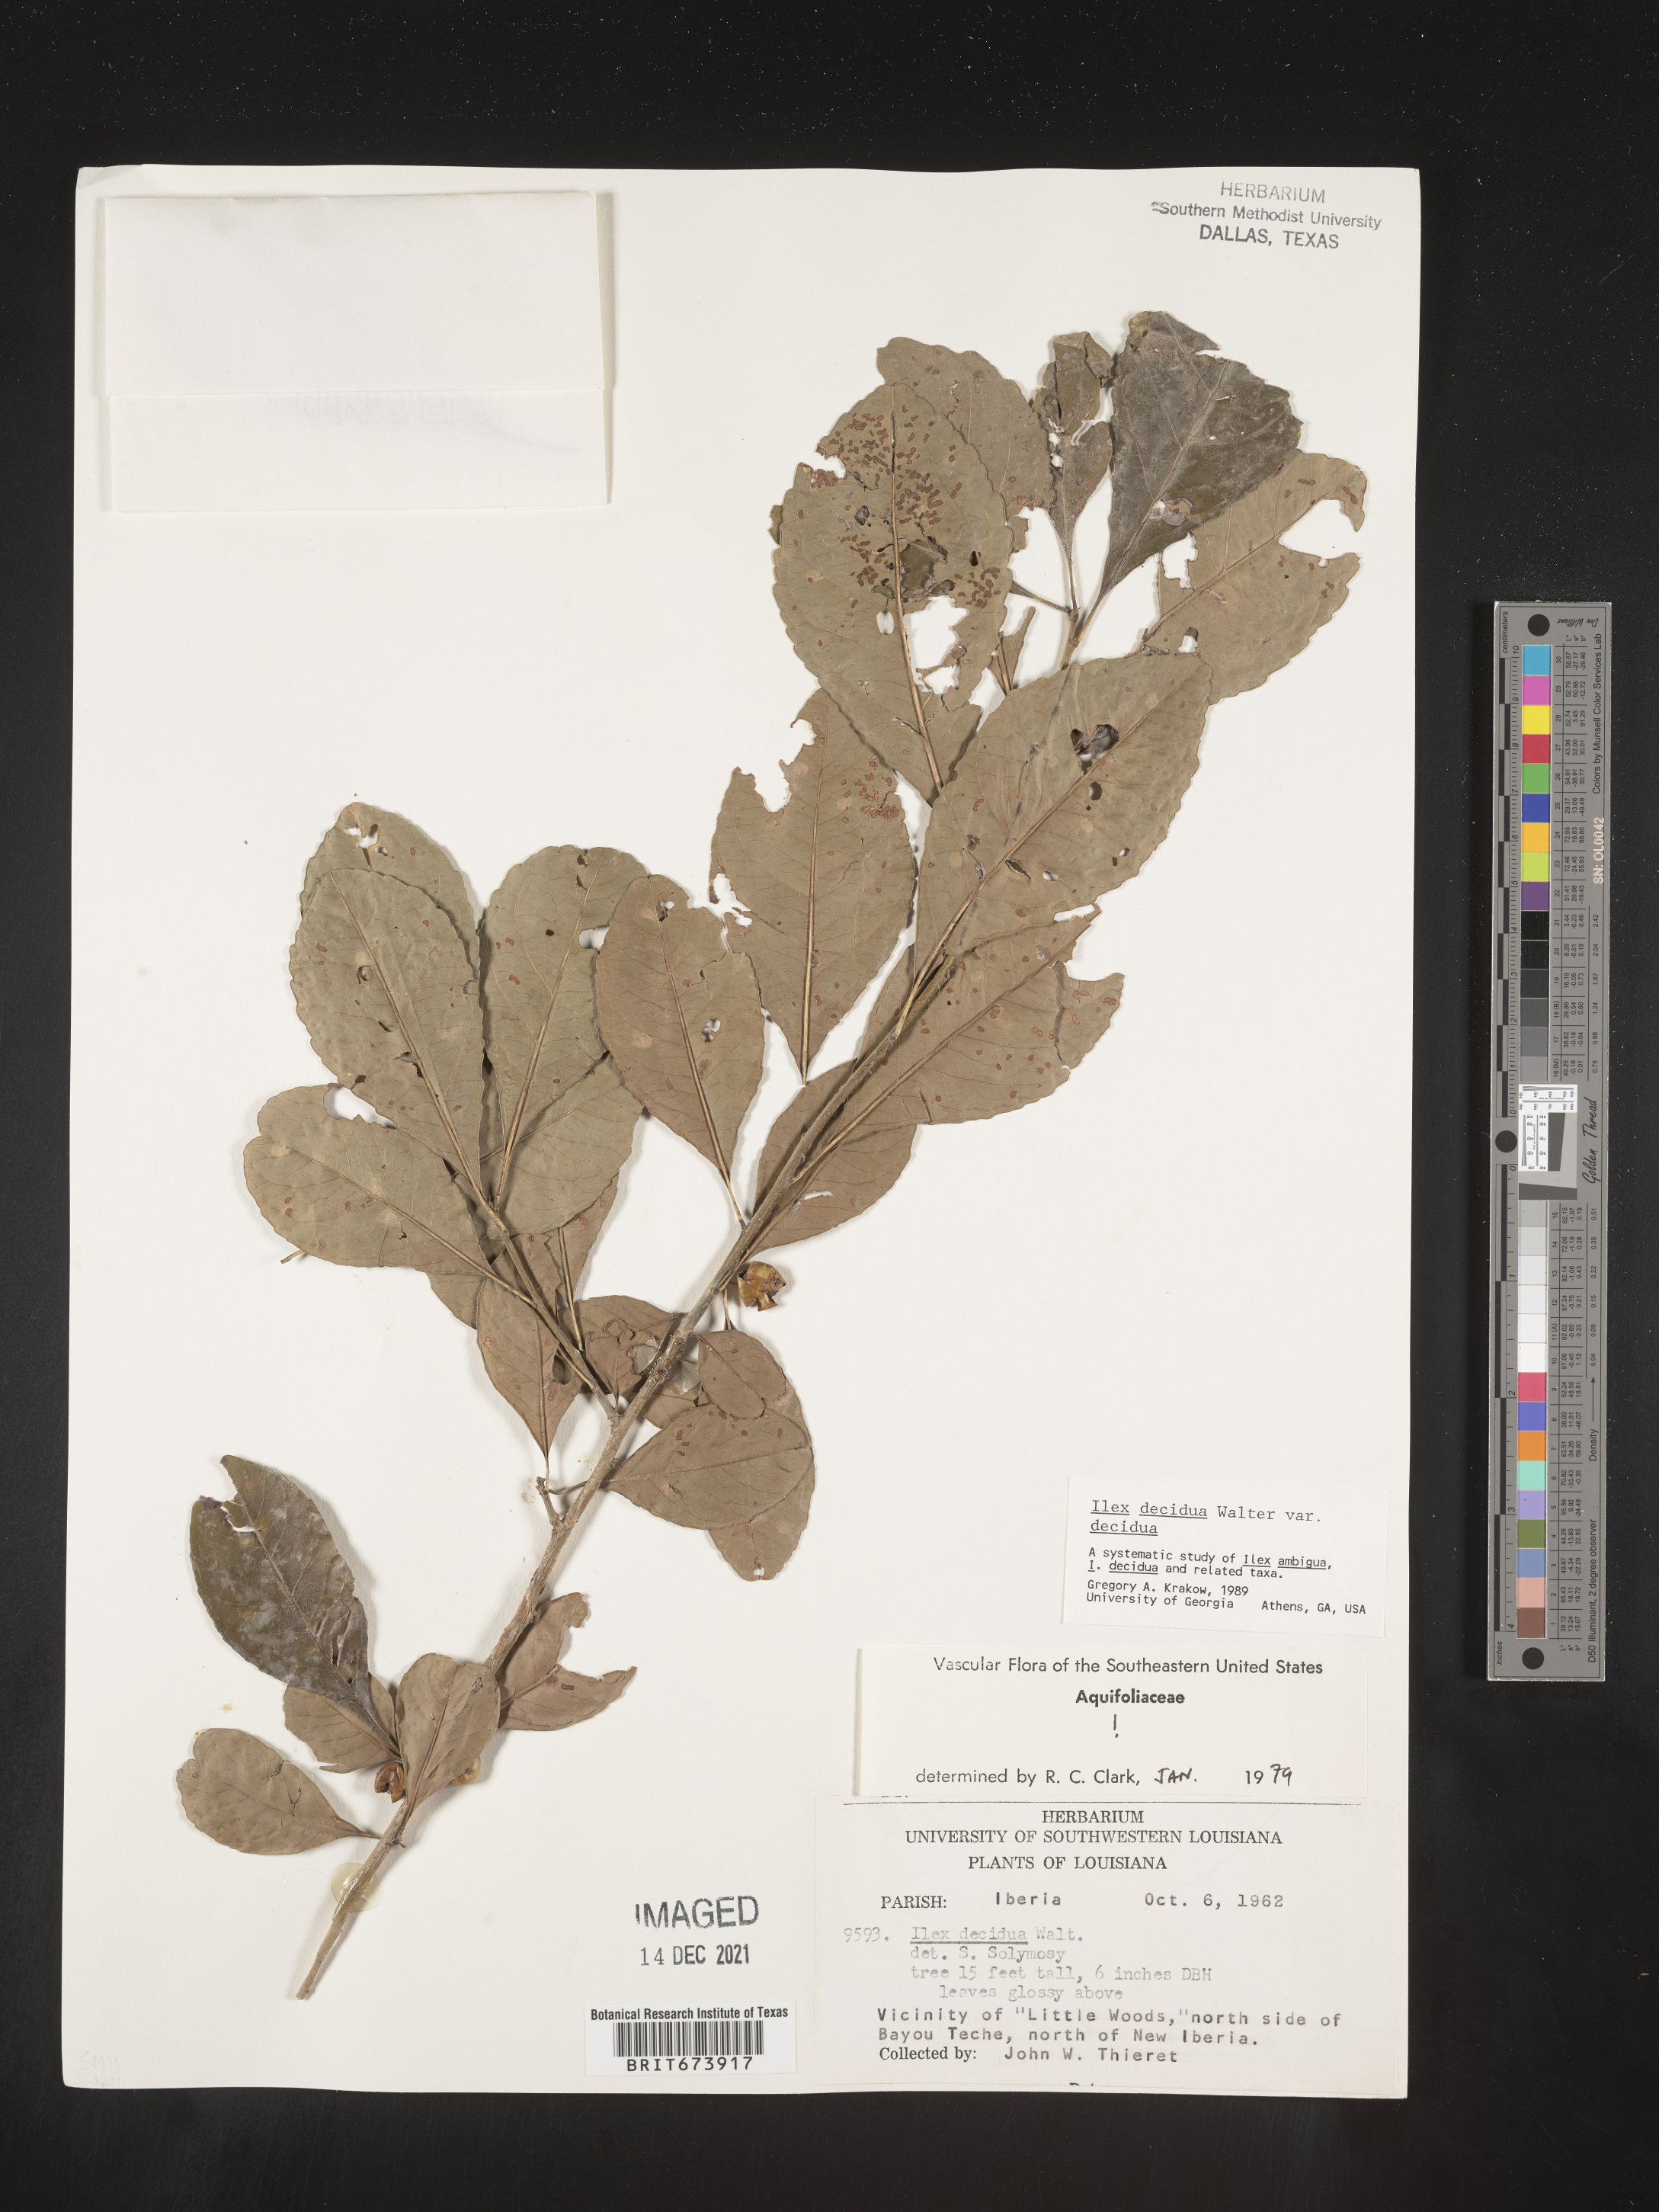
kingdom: Plantae
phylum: Tracheophyta
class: Magnoliopsida
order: Aquifoliales
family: Aquifoliaceae
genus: Ilex
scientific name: Ilex decidua
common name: Possum-haw
